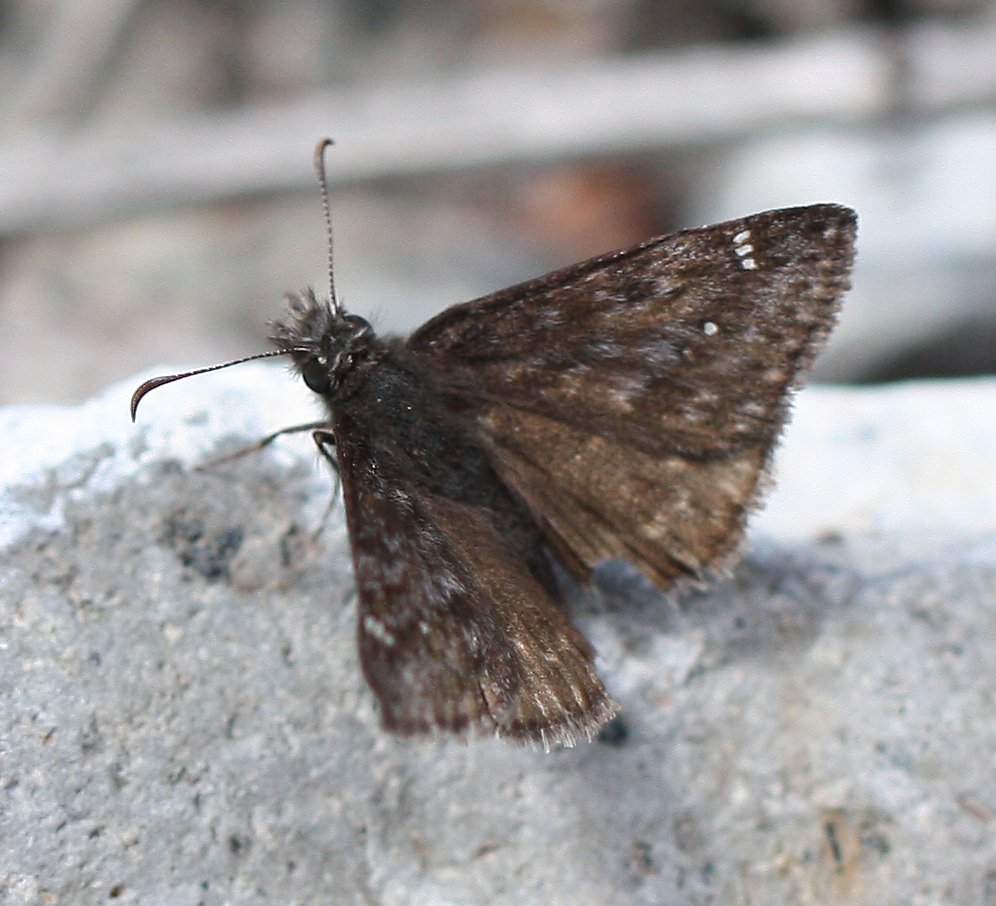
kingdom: Animalia
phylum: Arthropoda
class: Insecta
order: Lepidoptera
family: Hesperiidae
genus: Gesta
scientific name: Gesta
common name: Persius Duskywing
